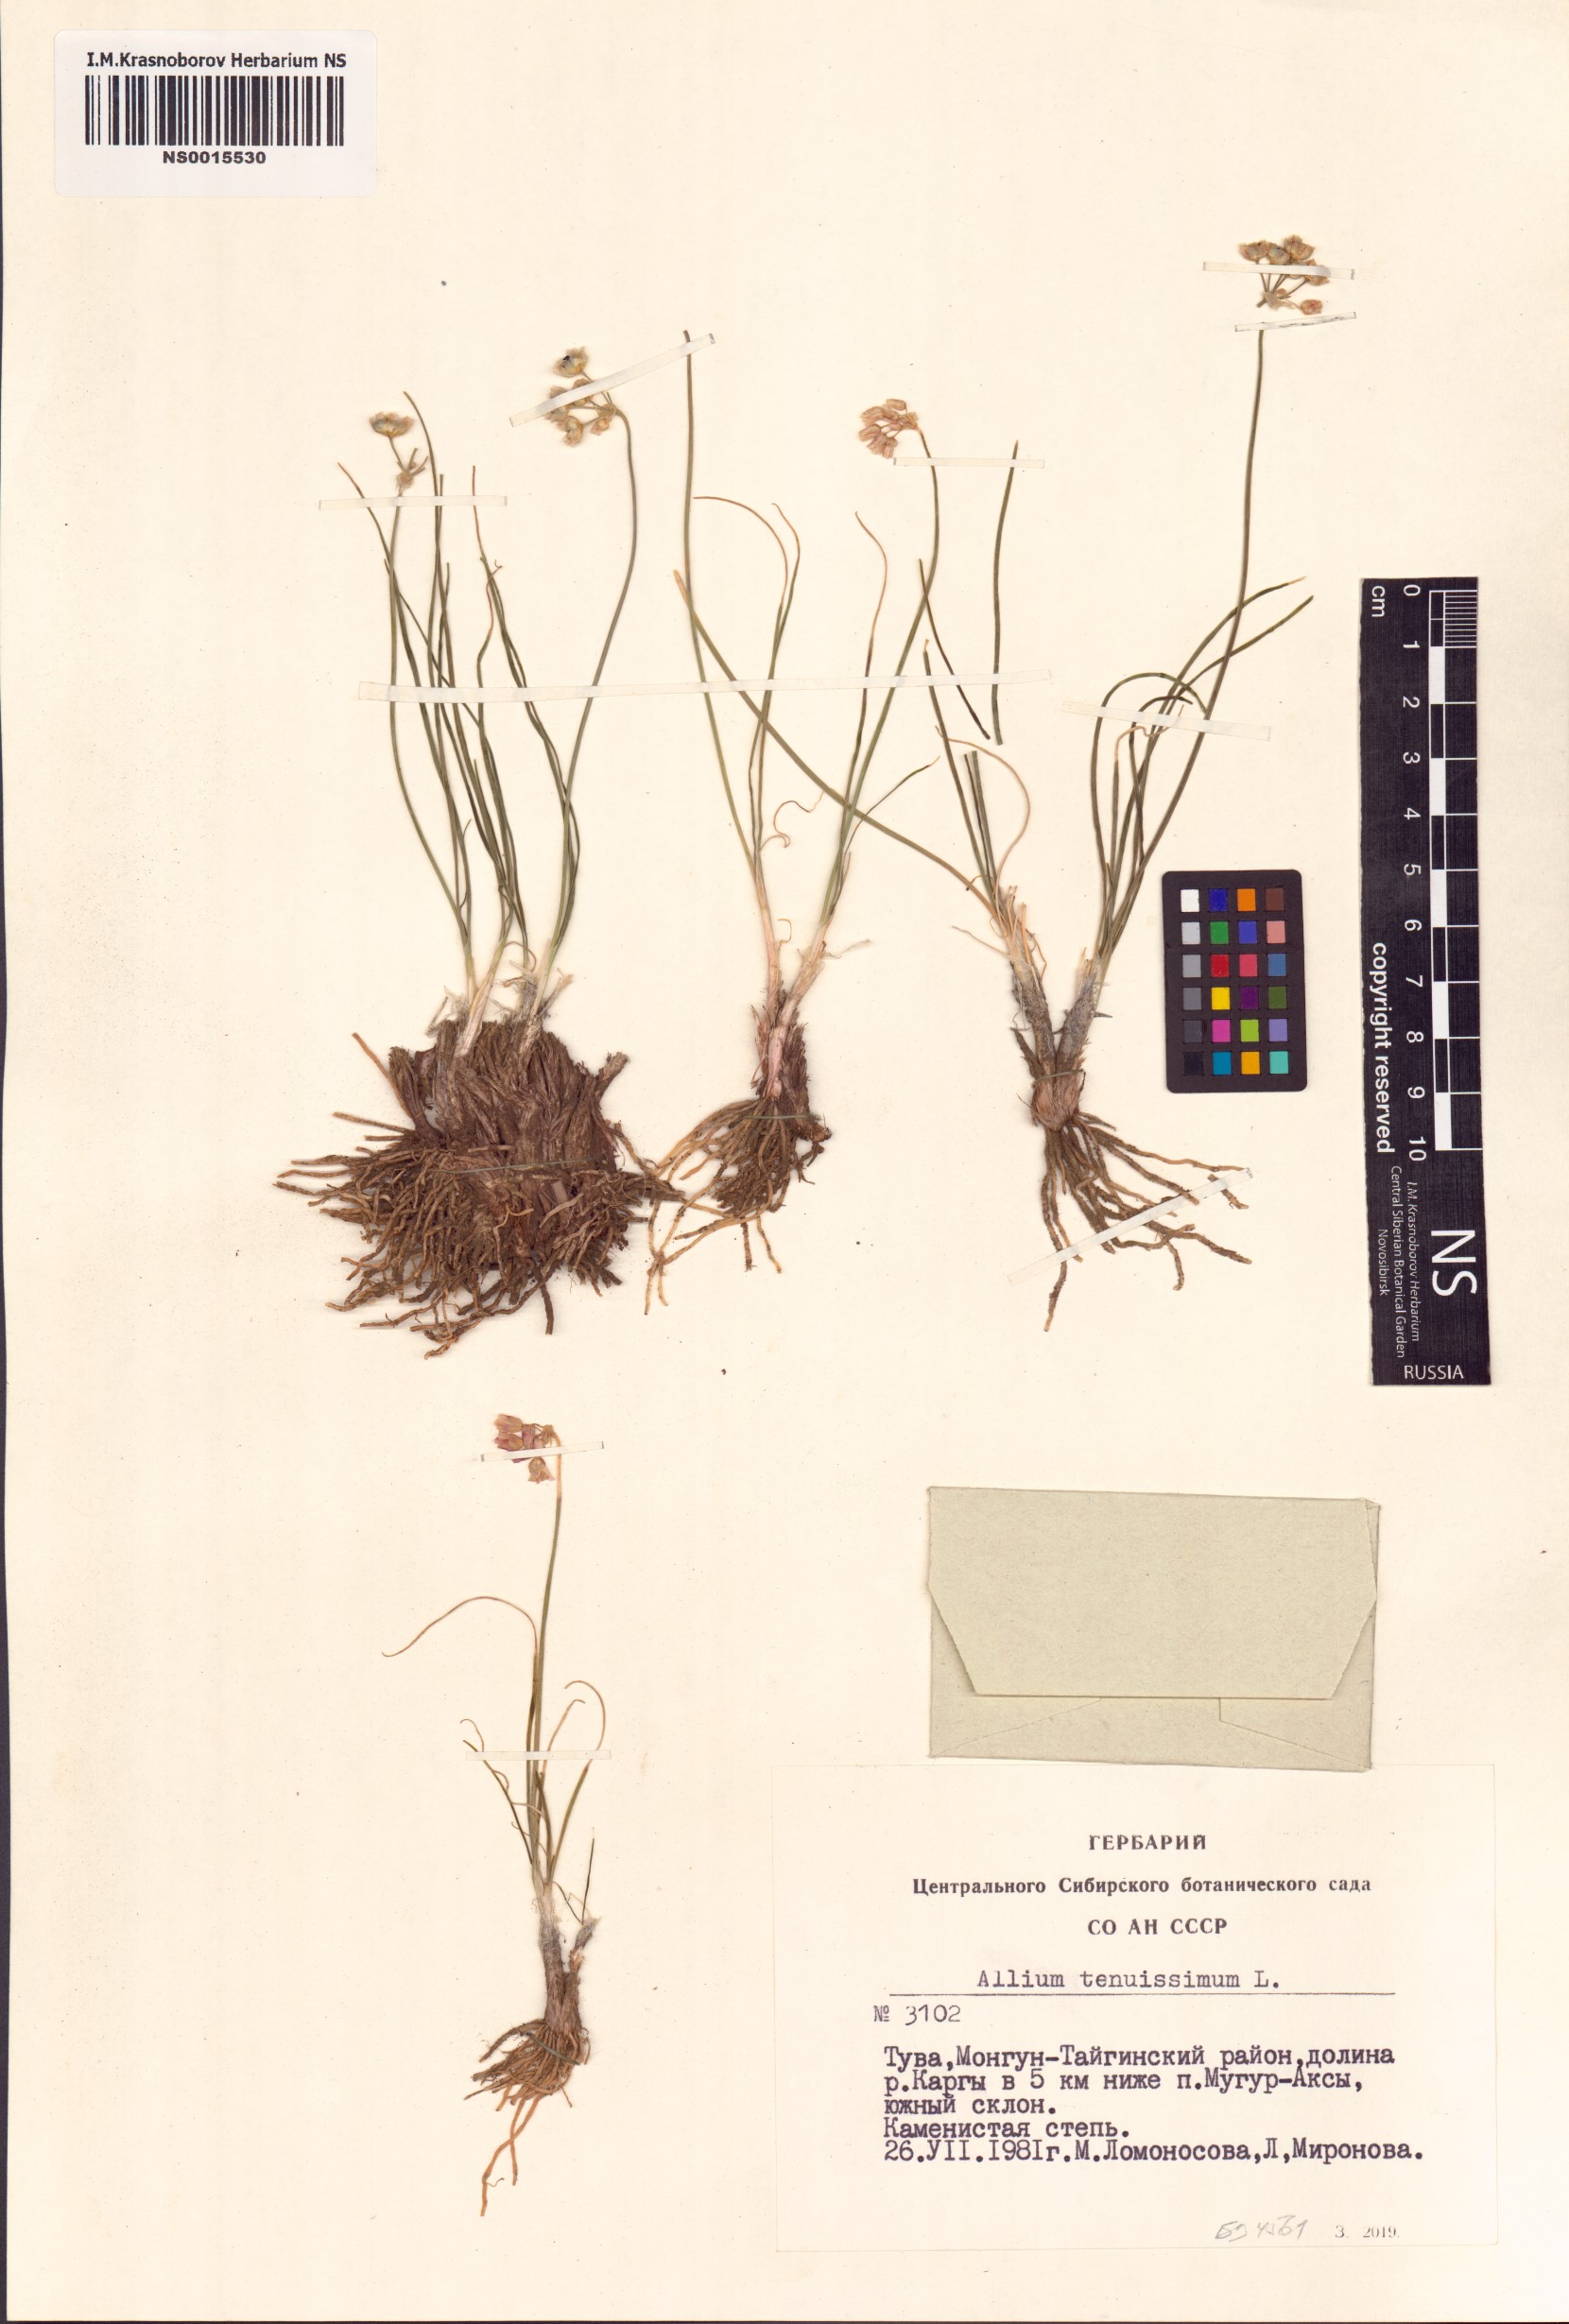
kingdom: Plantae
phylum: Tracheophyta
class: Liliopsida
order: Asparagales
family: Amaryllidaceae
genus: Allium
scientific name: Allium tenuissimum
